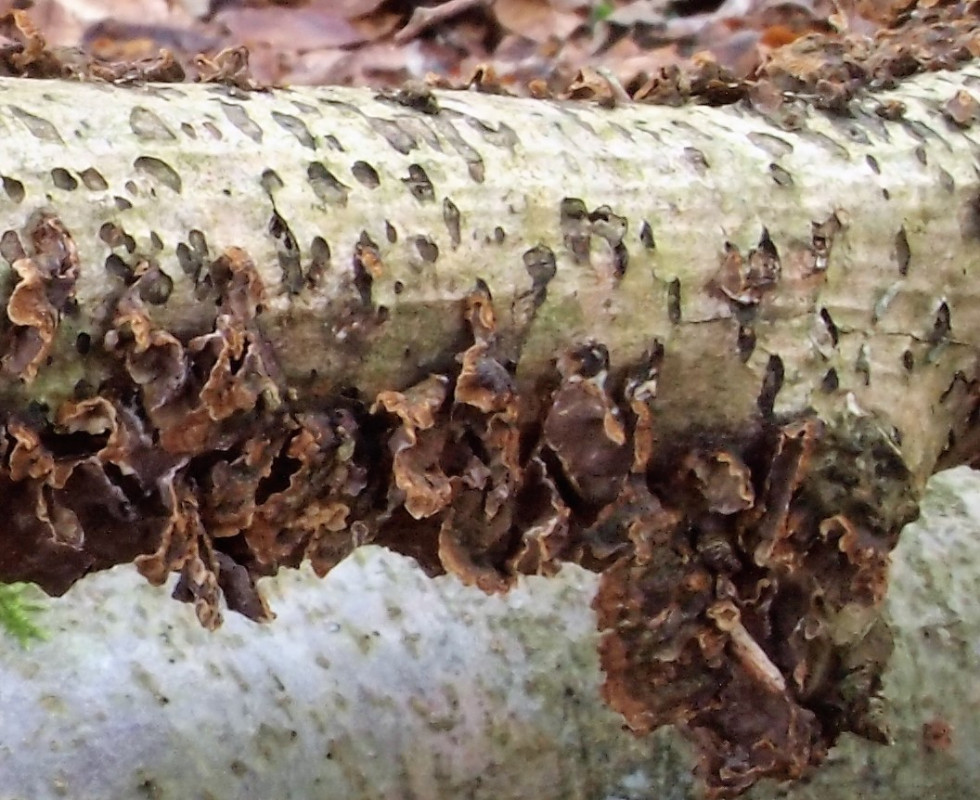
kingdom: Fungi
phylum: Basidiomycota
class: Agaricomycetes
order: Hymenochaetales
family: Hymenochaetaceae
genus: Hydnoporia
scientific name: Hydnoporia tabacina
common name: tobaksbrun ruslædersvamp
